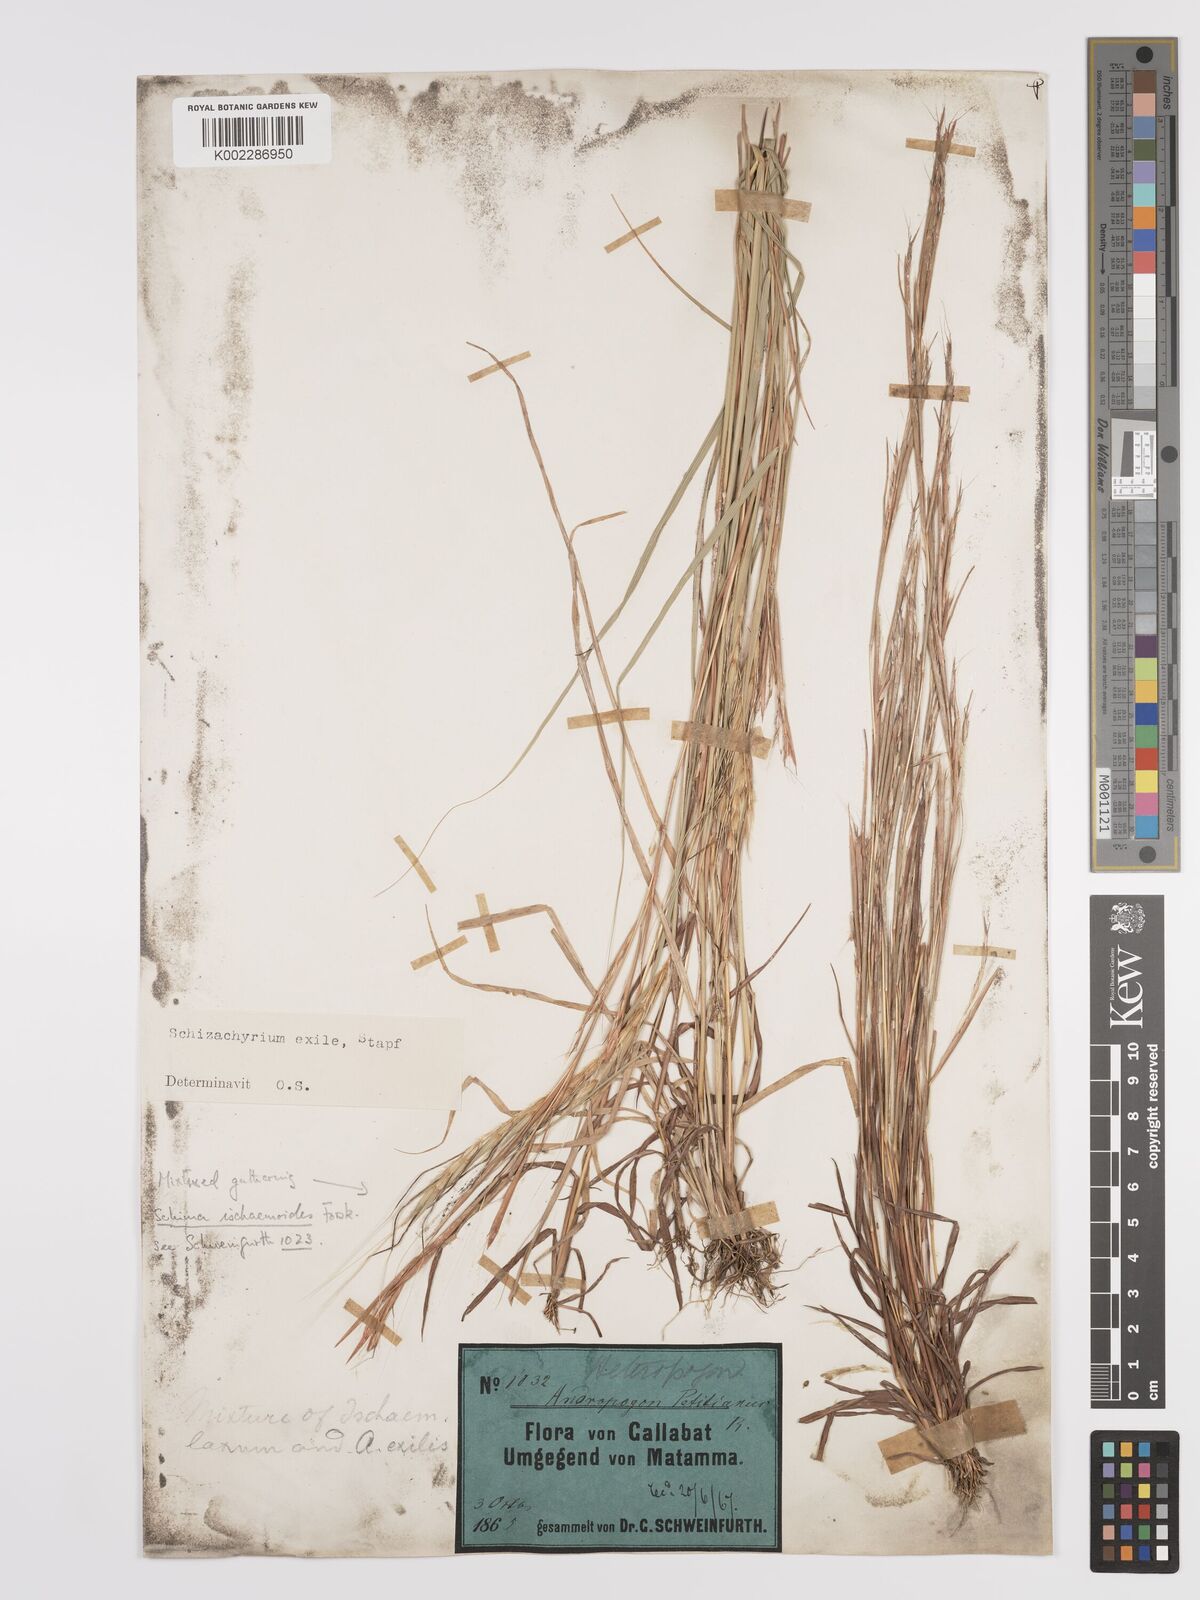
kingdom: Plantae
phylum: Tracheophyta
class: Liliopsida
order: Poales
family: Poaceae
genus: Schizachyrium
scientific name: Schizachyrium exile
